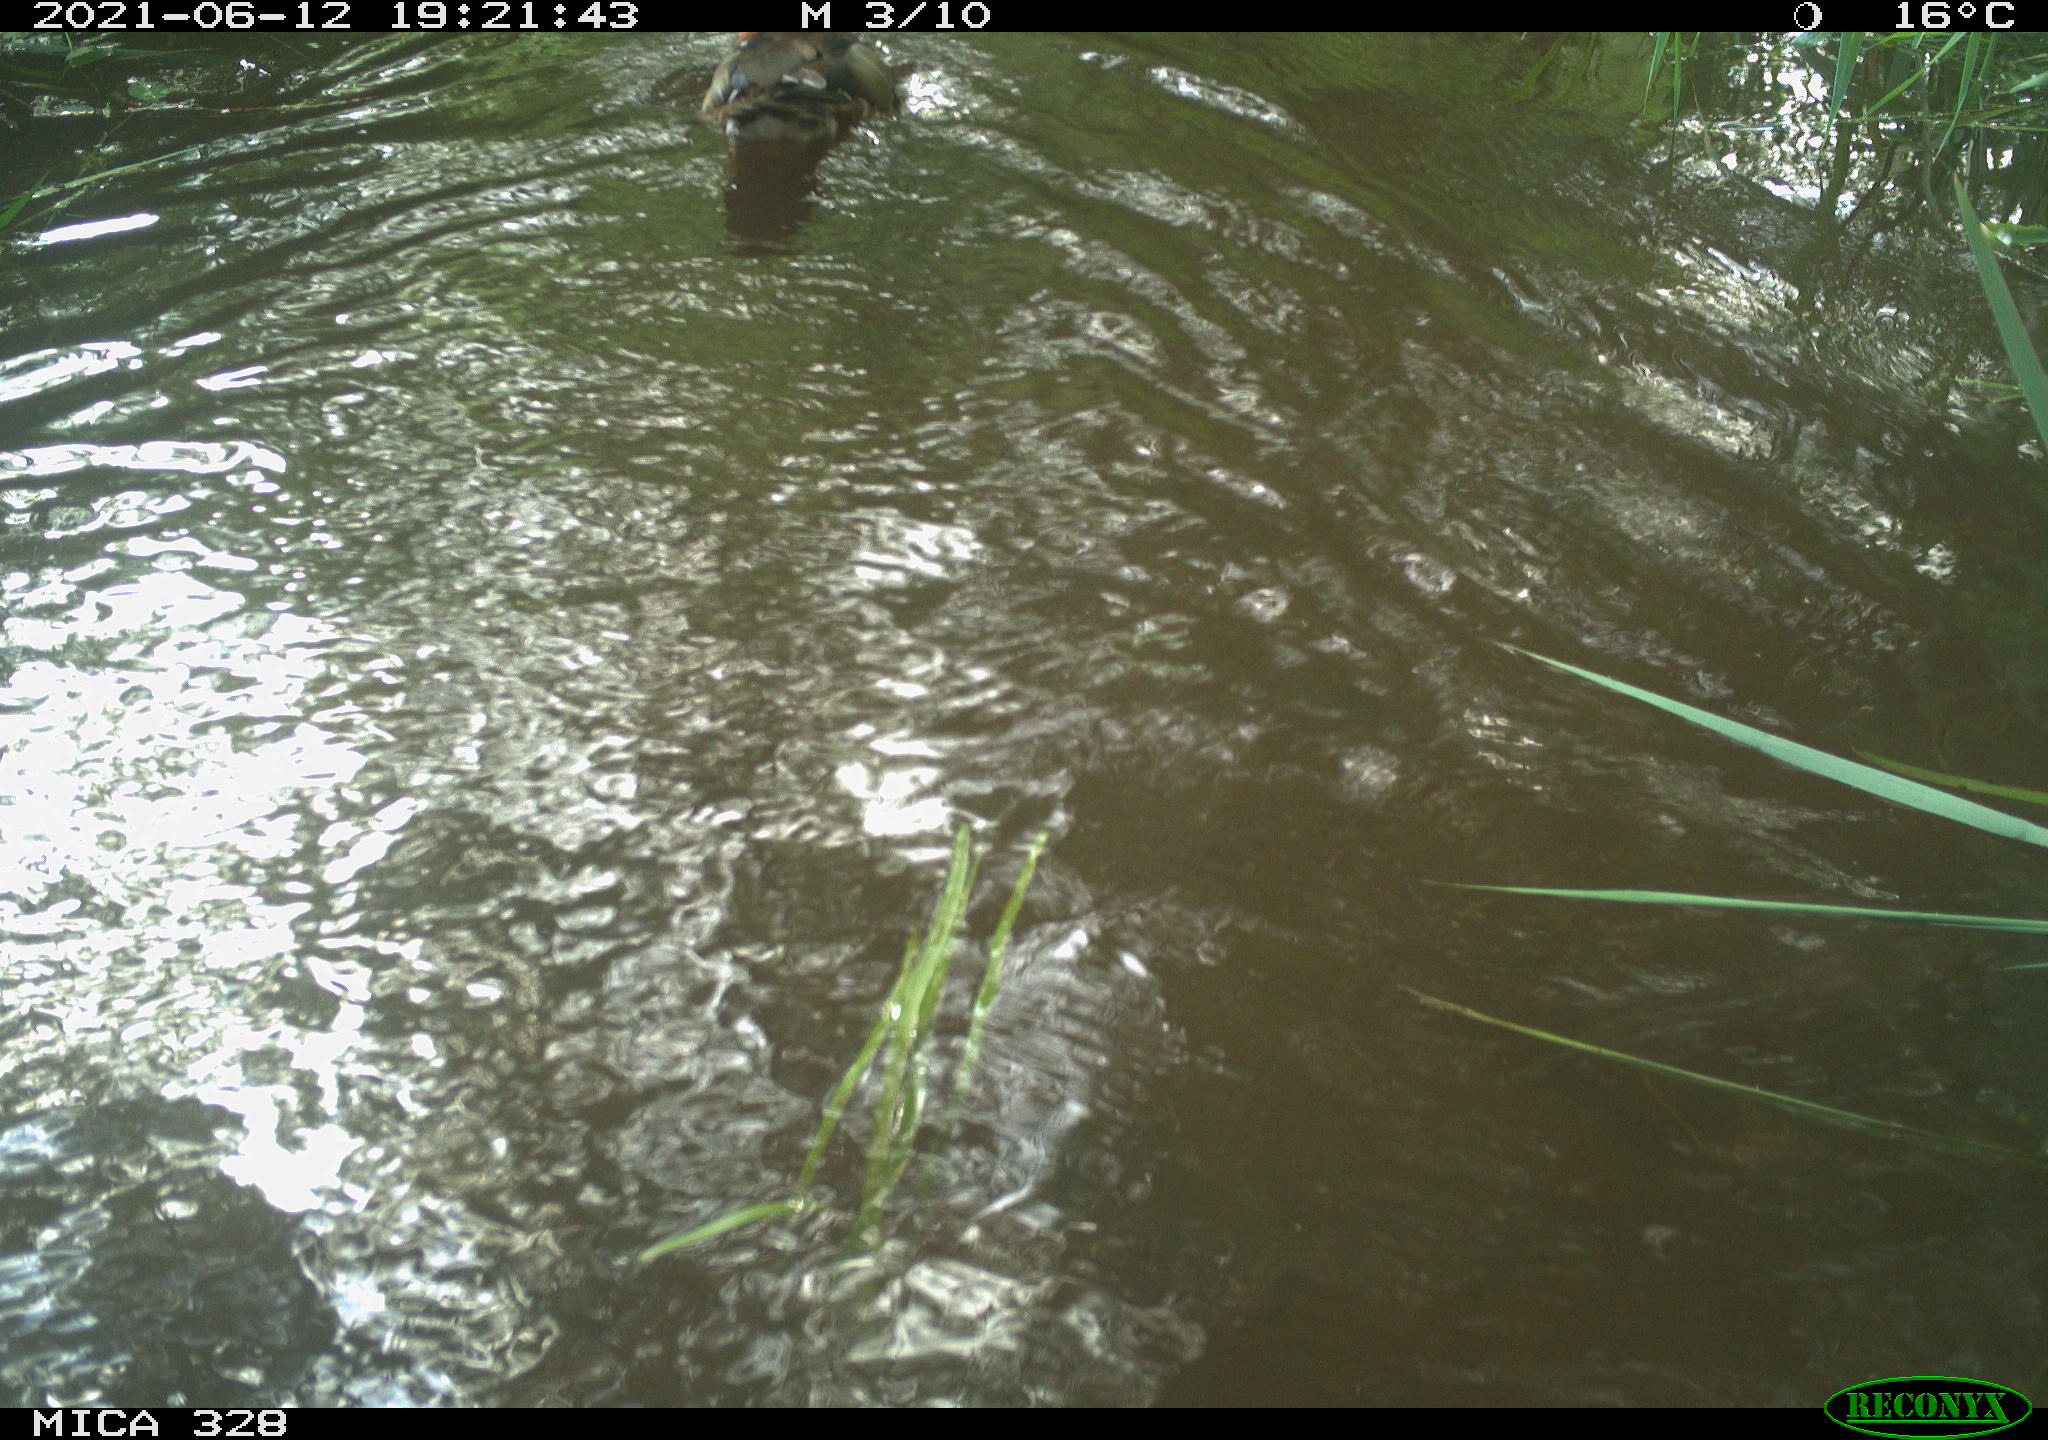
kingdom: Animalia
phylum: Chordata
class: Aves
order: Anseriformes
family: Anatidae
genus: Aix
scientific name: Aix galericulata
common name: Mandarin duck
